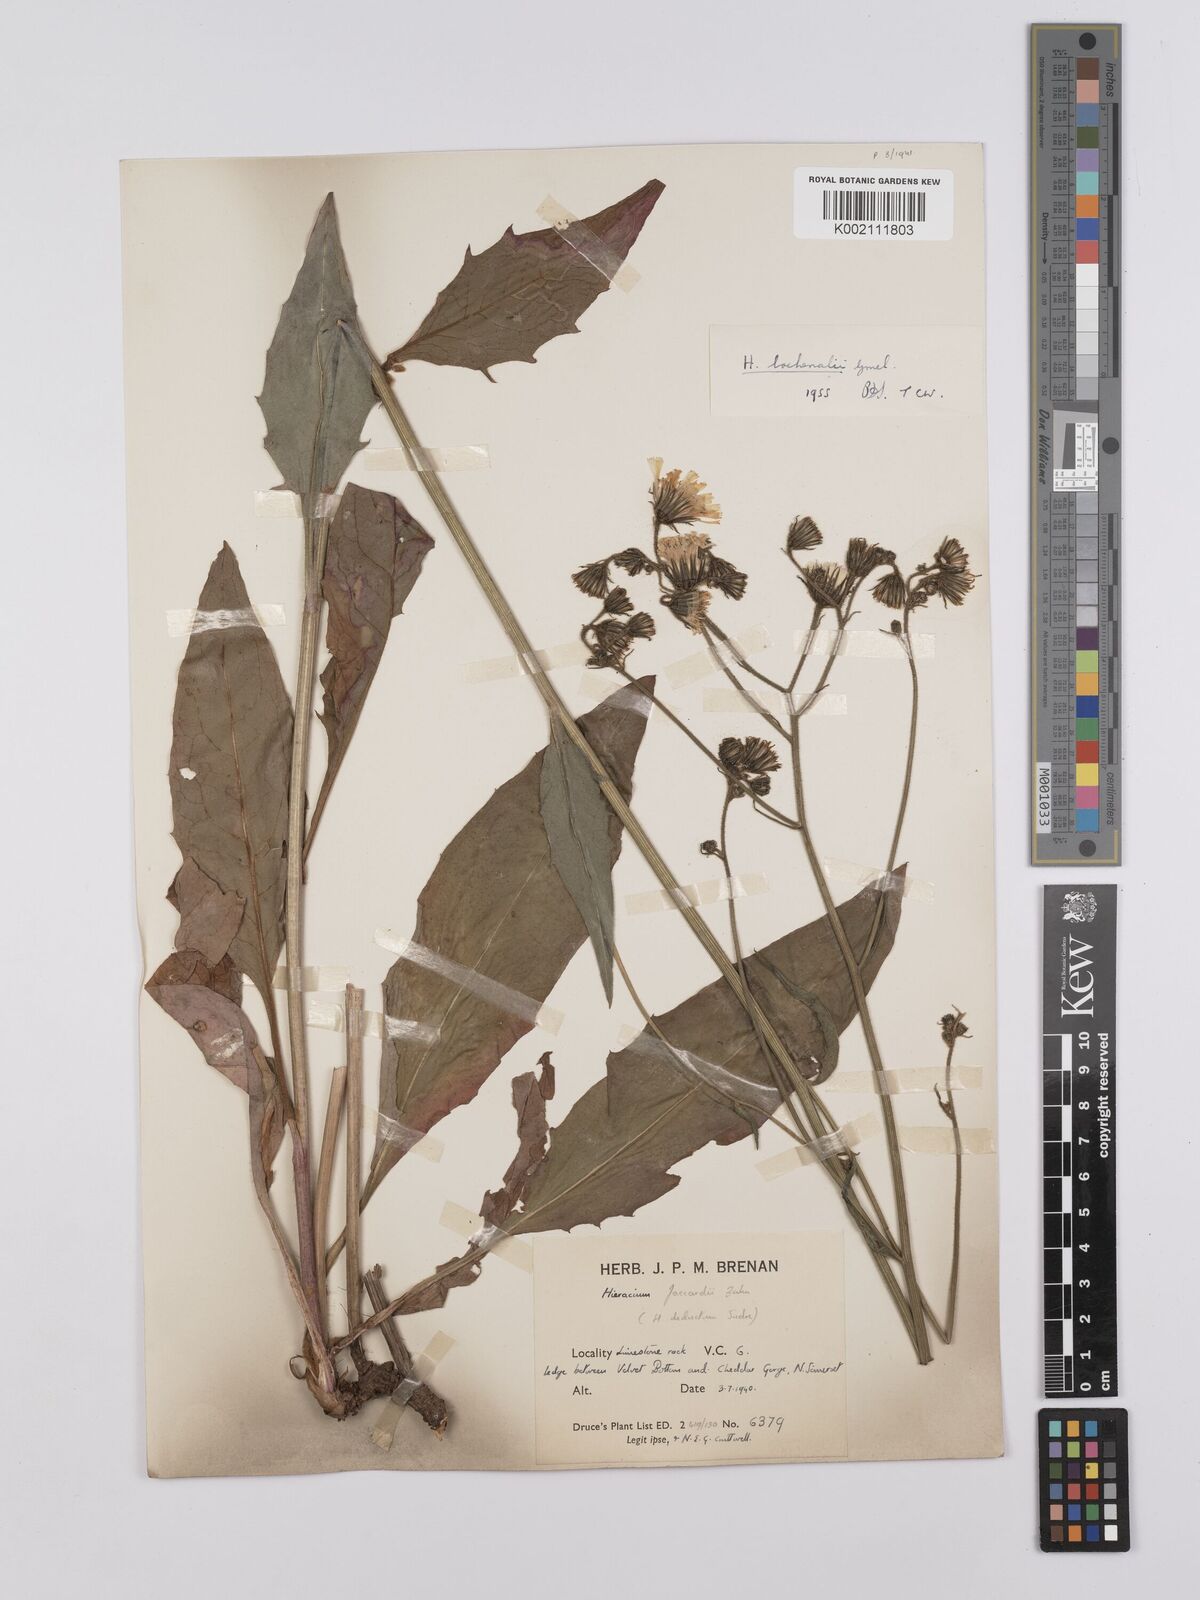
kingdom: Plantae
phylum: Tracheophyta
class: Magnoliopsida
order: Asterales
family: Asteraceae
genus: Hieracium
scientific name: Hieracium
